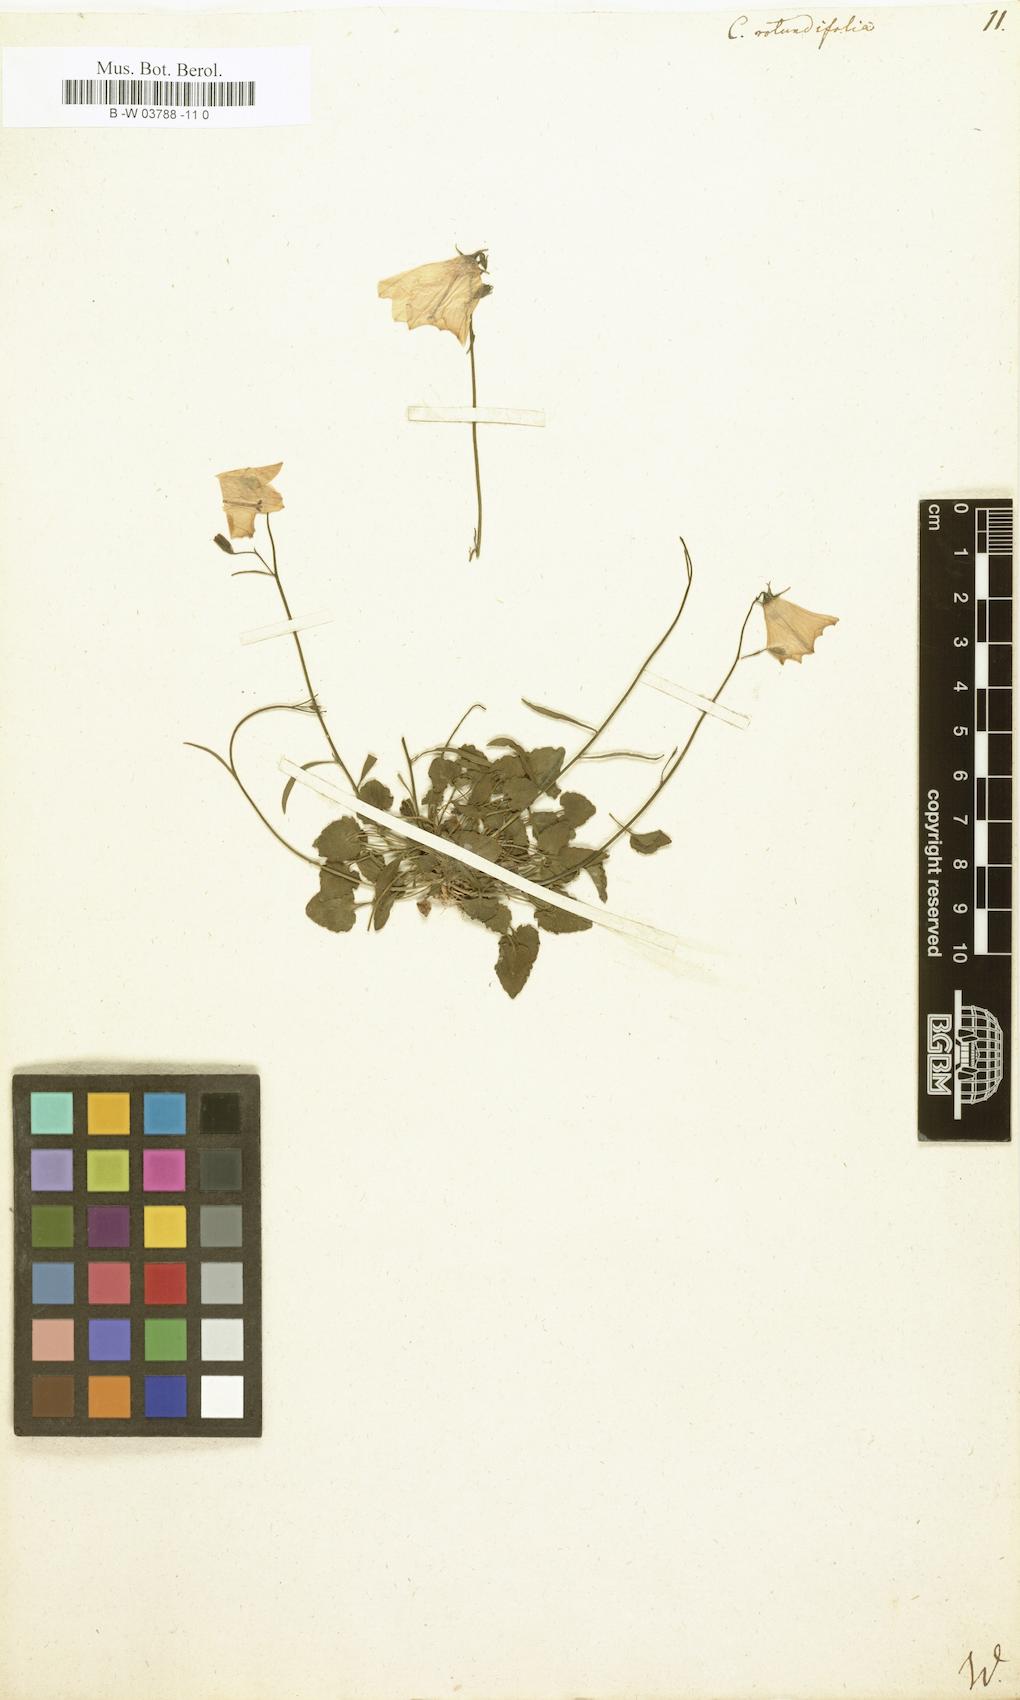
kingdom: Plantae
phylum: Tracheophyta
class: Magnoliopsida
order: Asterales
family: Campanulaceae
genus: Campanula
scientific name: Campanula rotundifolia
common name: Harebell
